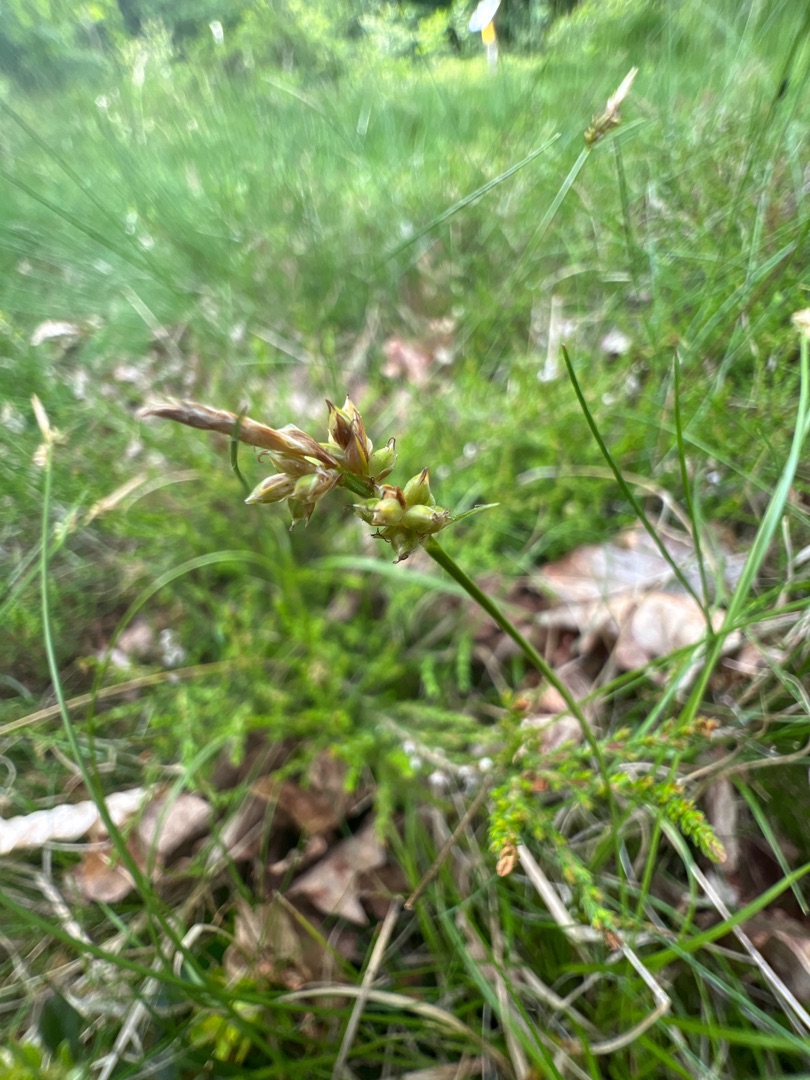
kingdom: Plantae
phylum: Tracheophyta
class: Liliopsida
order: Poales
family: Cyperaceae
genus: Carex
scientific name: Carex pilulifera
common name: Pille-star
